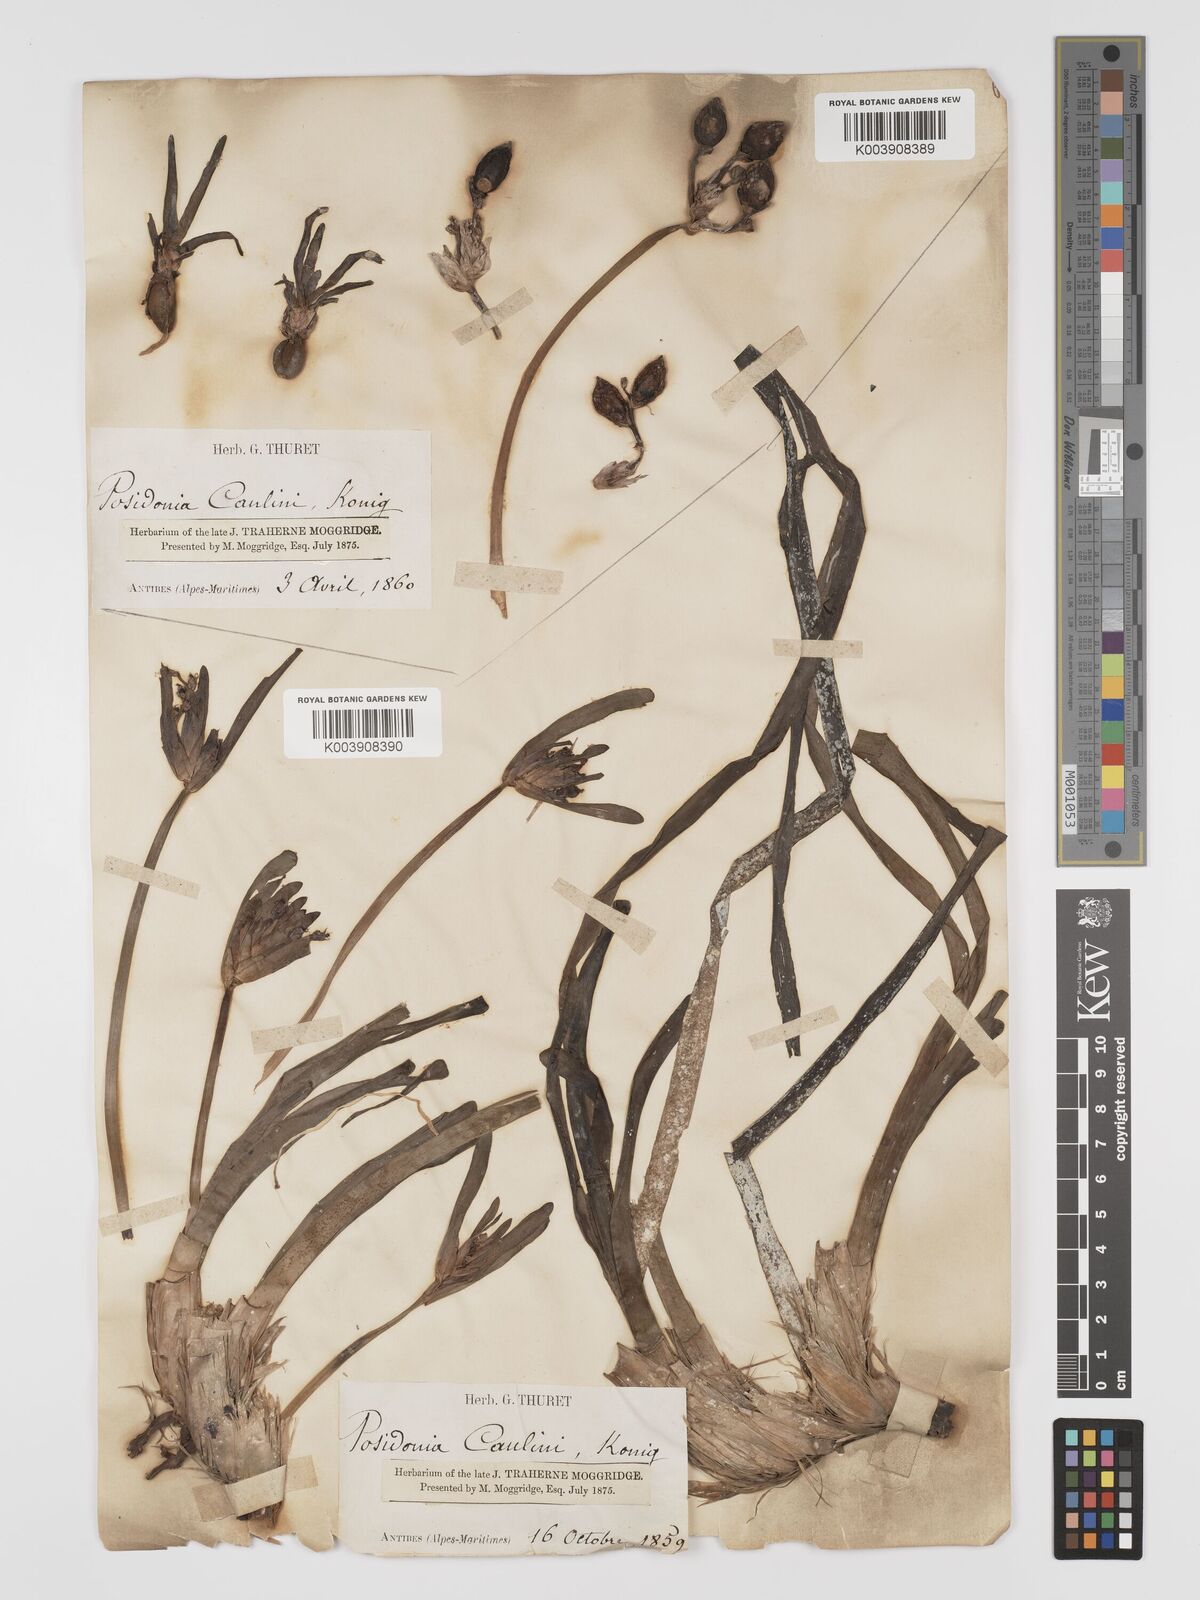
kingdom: Plantae
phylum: Tracheophyta
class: Liliopsida
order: Alismatales
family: Posidoniaceae
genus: Posidonia
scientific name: Posidonia oceanica
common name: Mediterranean tapeweed
